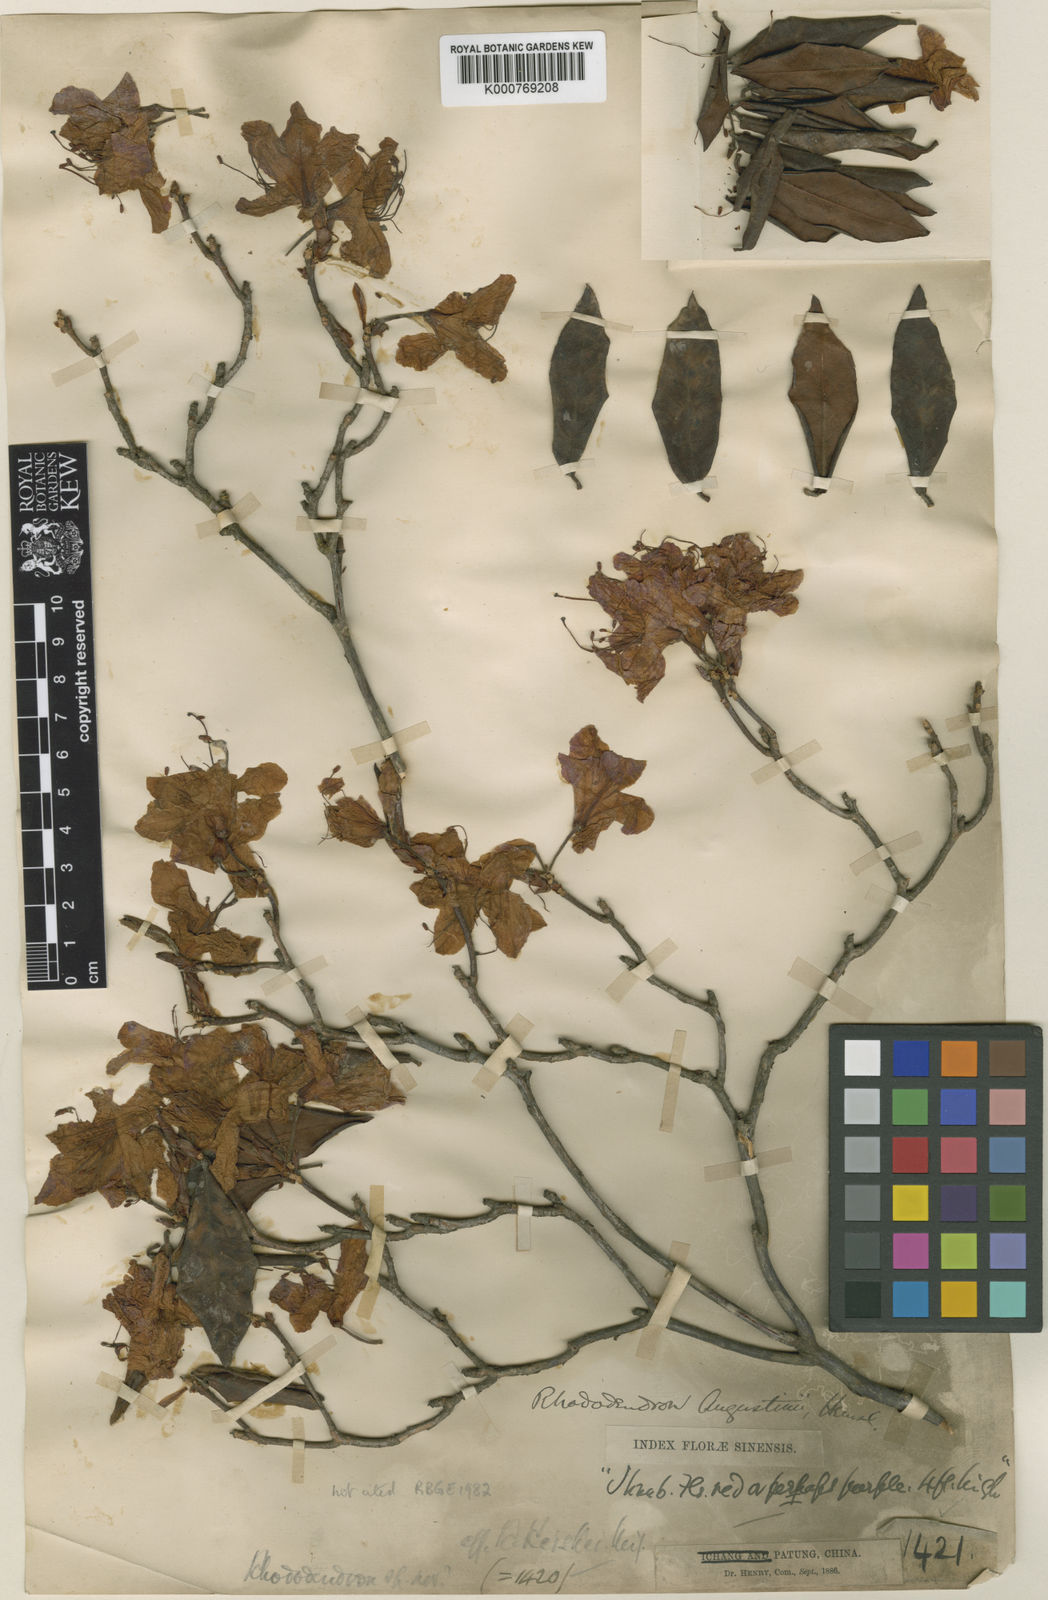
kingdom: Plantae
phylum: Tracheophyta
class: Magnoliopsida
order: Ericales
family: Ericaceae
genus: Rhododendron
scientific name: Rhododendron augustinii
